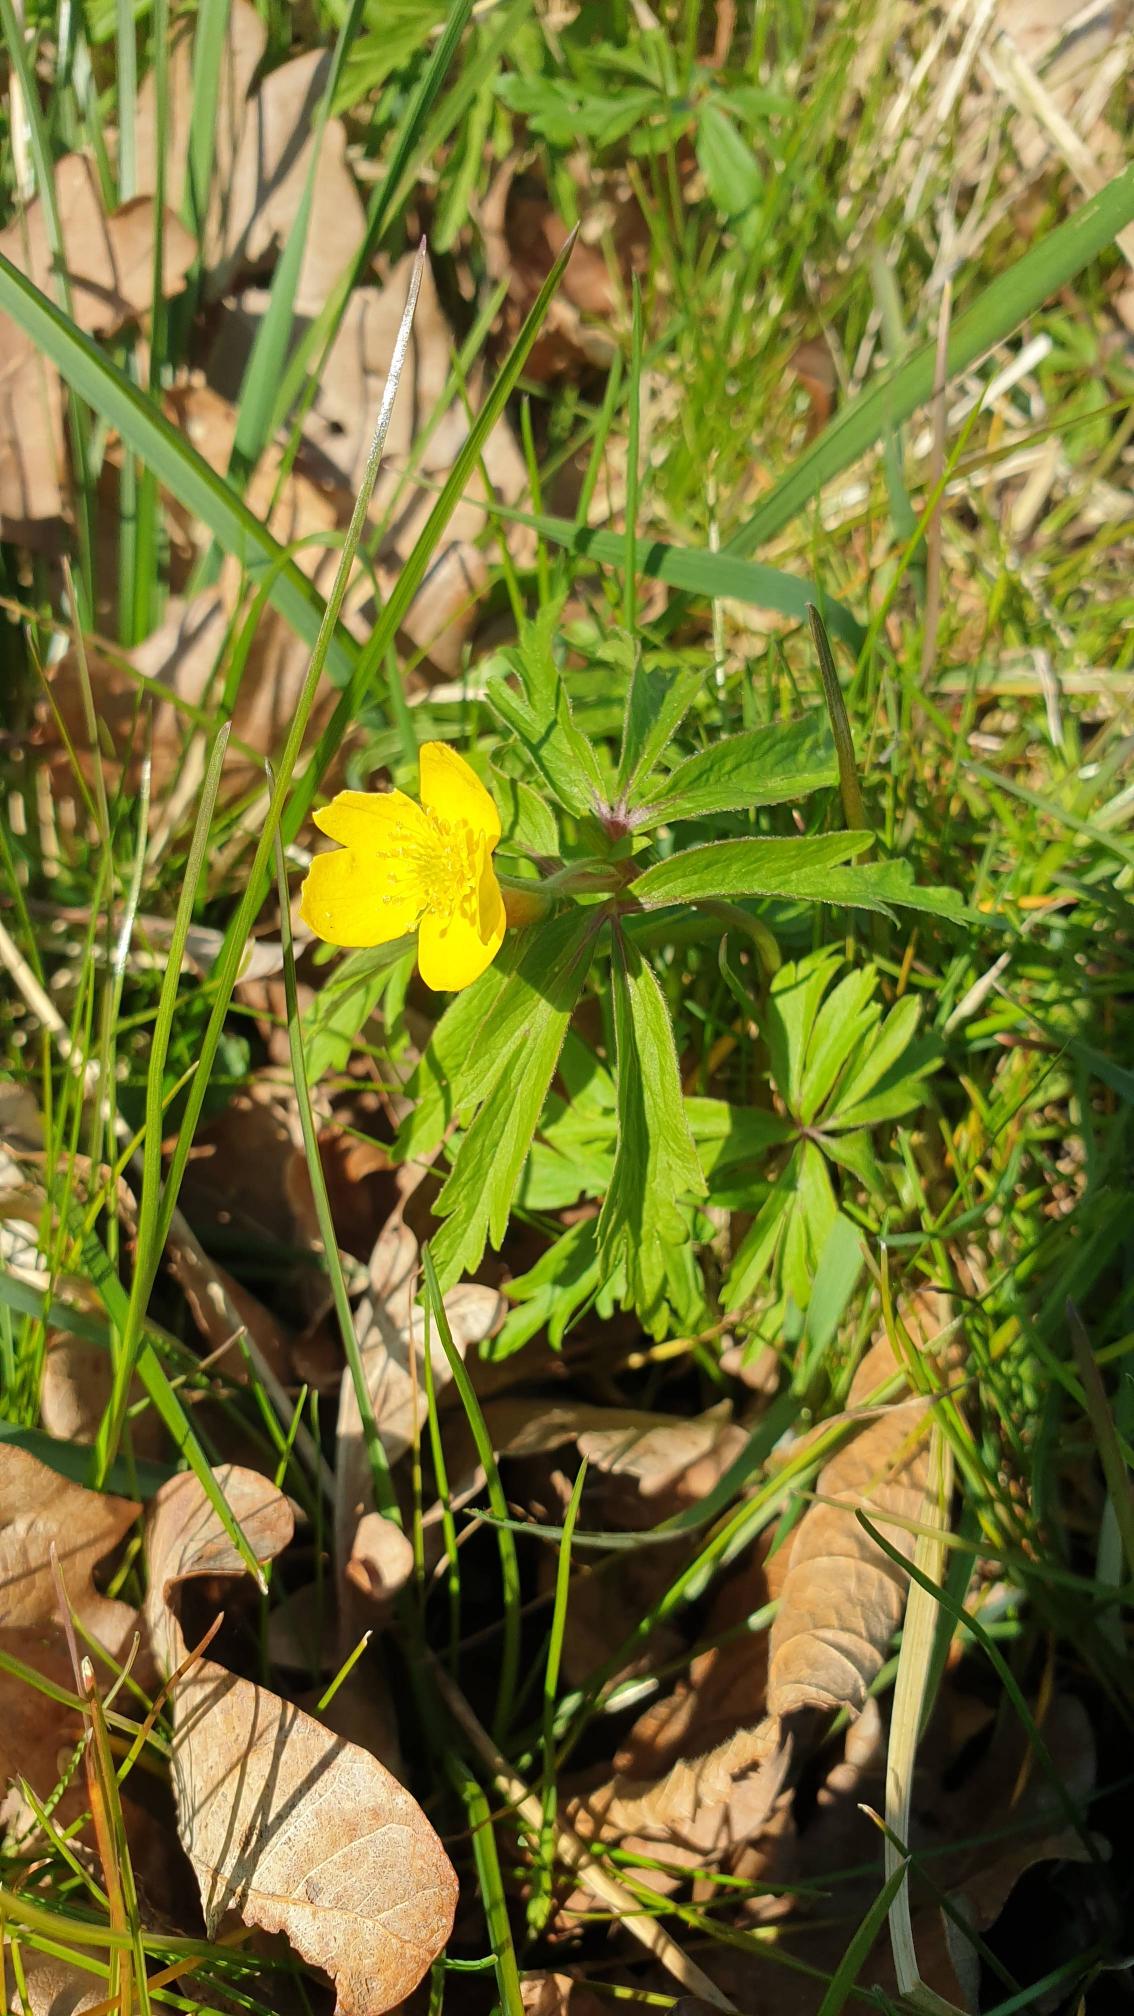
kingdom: Plantae
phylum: Tracheophyta
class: Magnoliopsida
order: Ranunculales
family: Ranunculaceae
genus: Anemone
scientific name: Anemone ranunculoides
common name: Gul anemone
